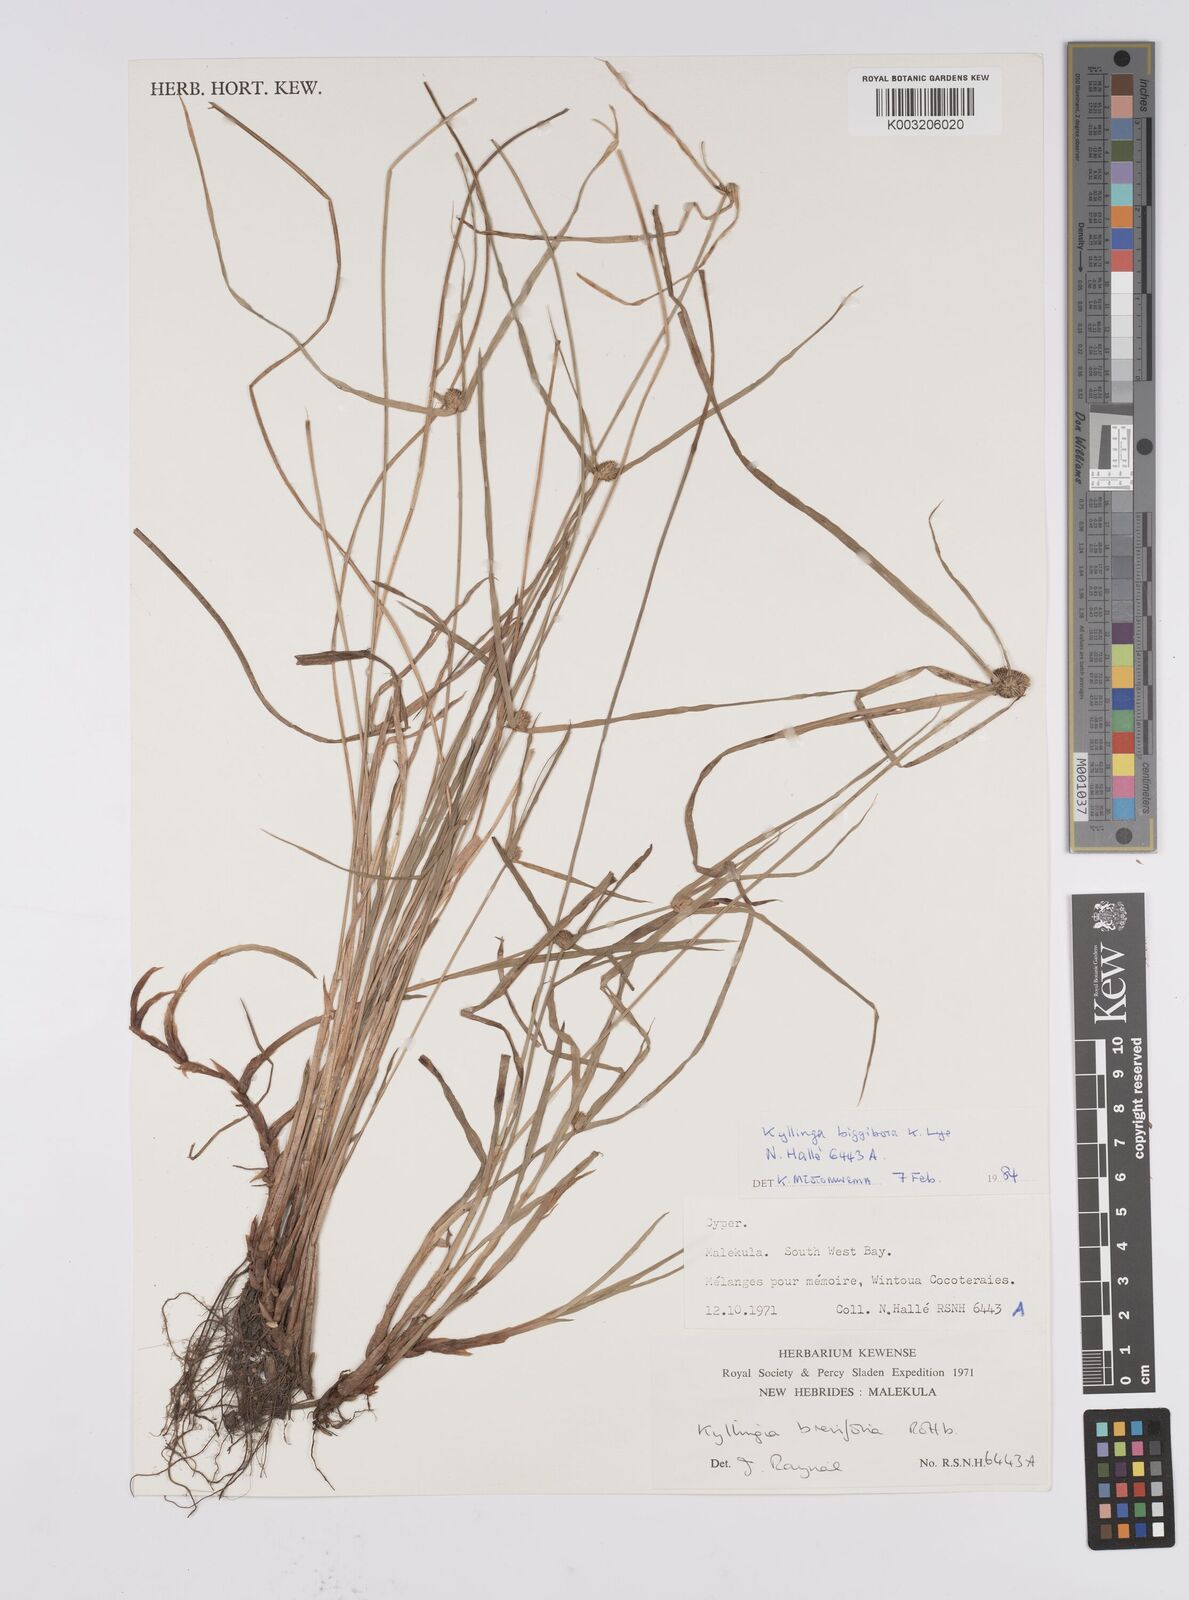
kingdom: Plantae
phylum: Tracheophyta
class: Liliopsida
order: Poales
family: Cyperaceae
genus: Cyperus
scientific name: Cyperus brevifolius
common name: Globe kyllinga
